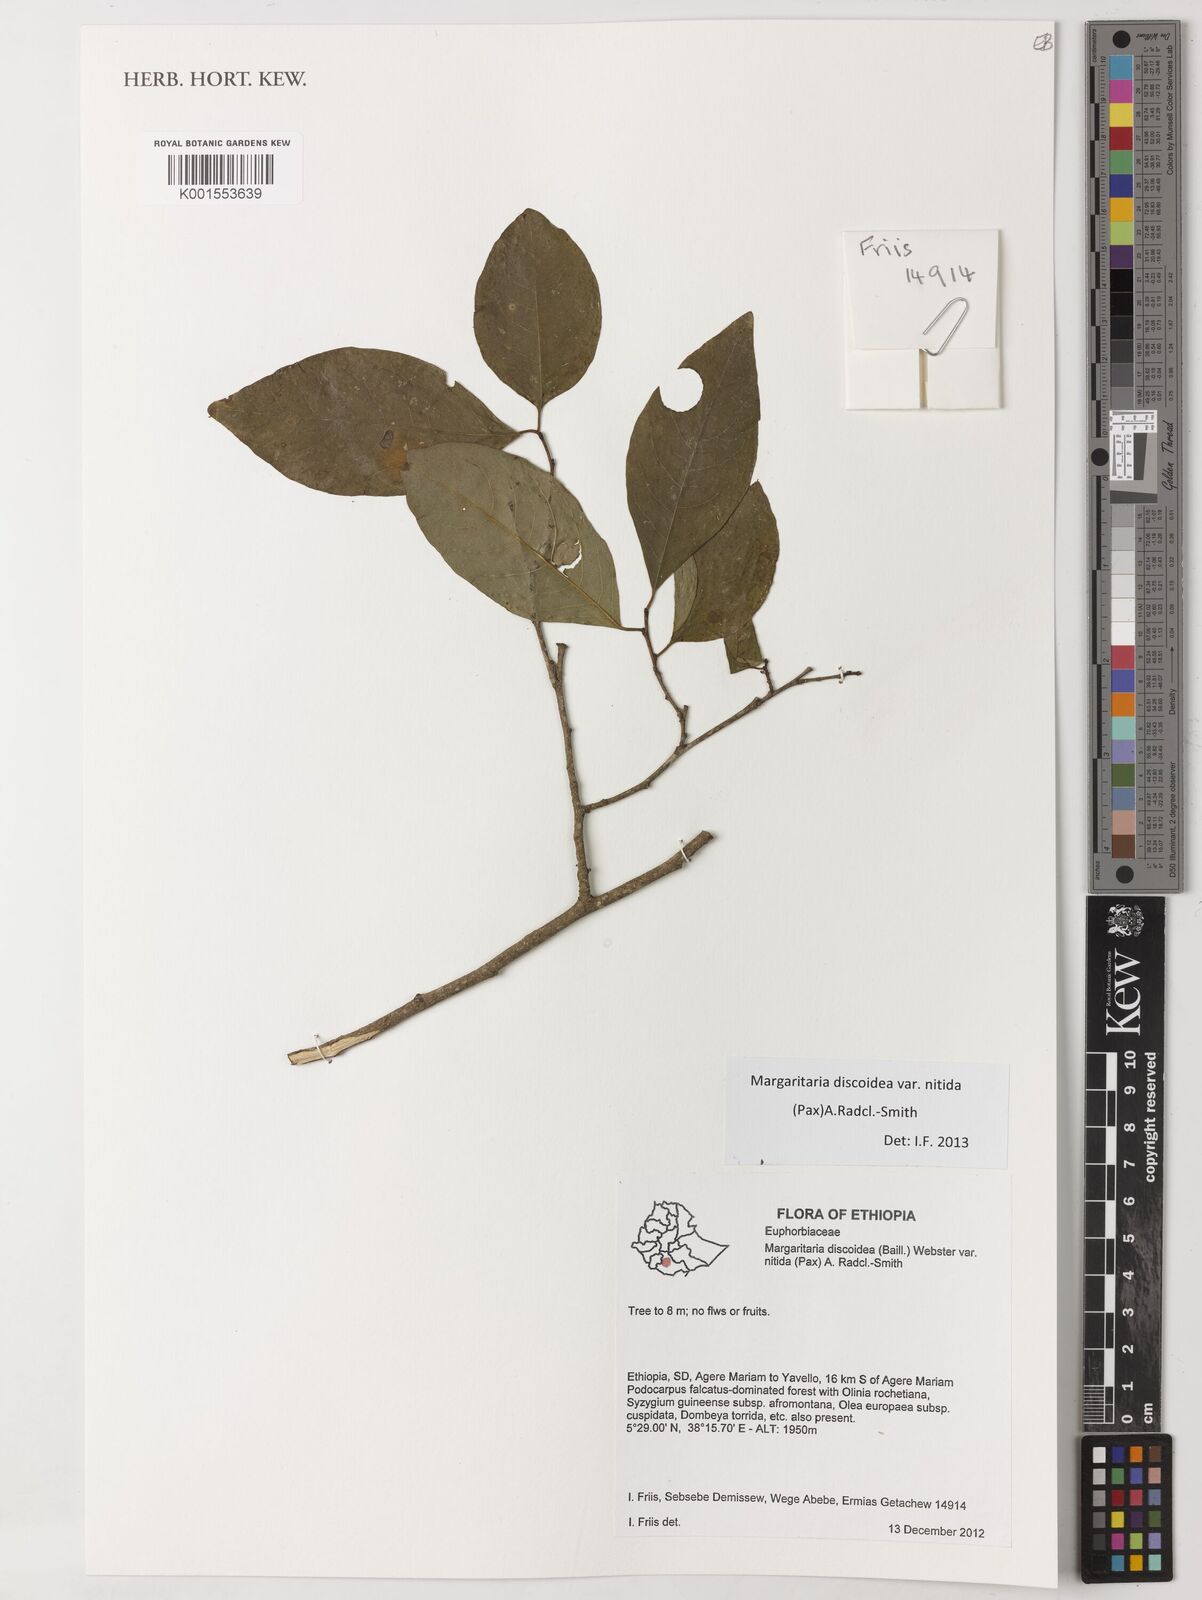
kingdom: Plantae
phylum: Tracheophyta
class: Magnoliopsida
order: Malpighiales
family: Phyllanthaceae
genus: Margaritaria
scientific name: Margaritaria discoidea
